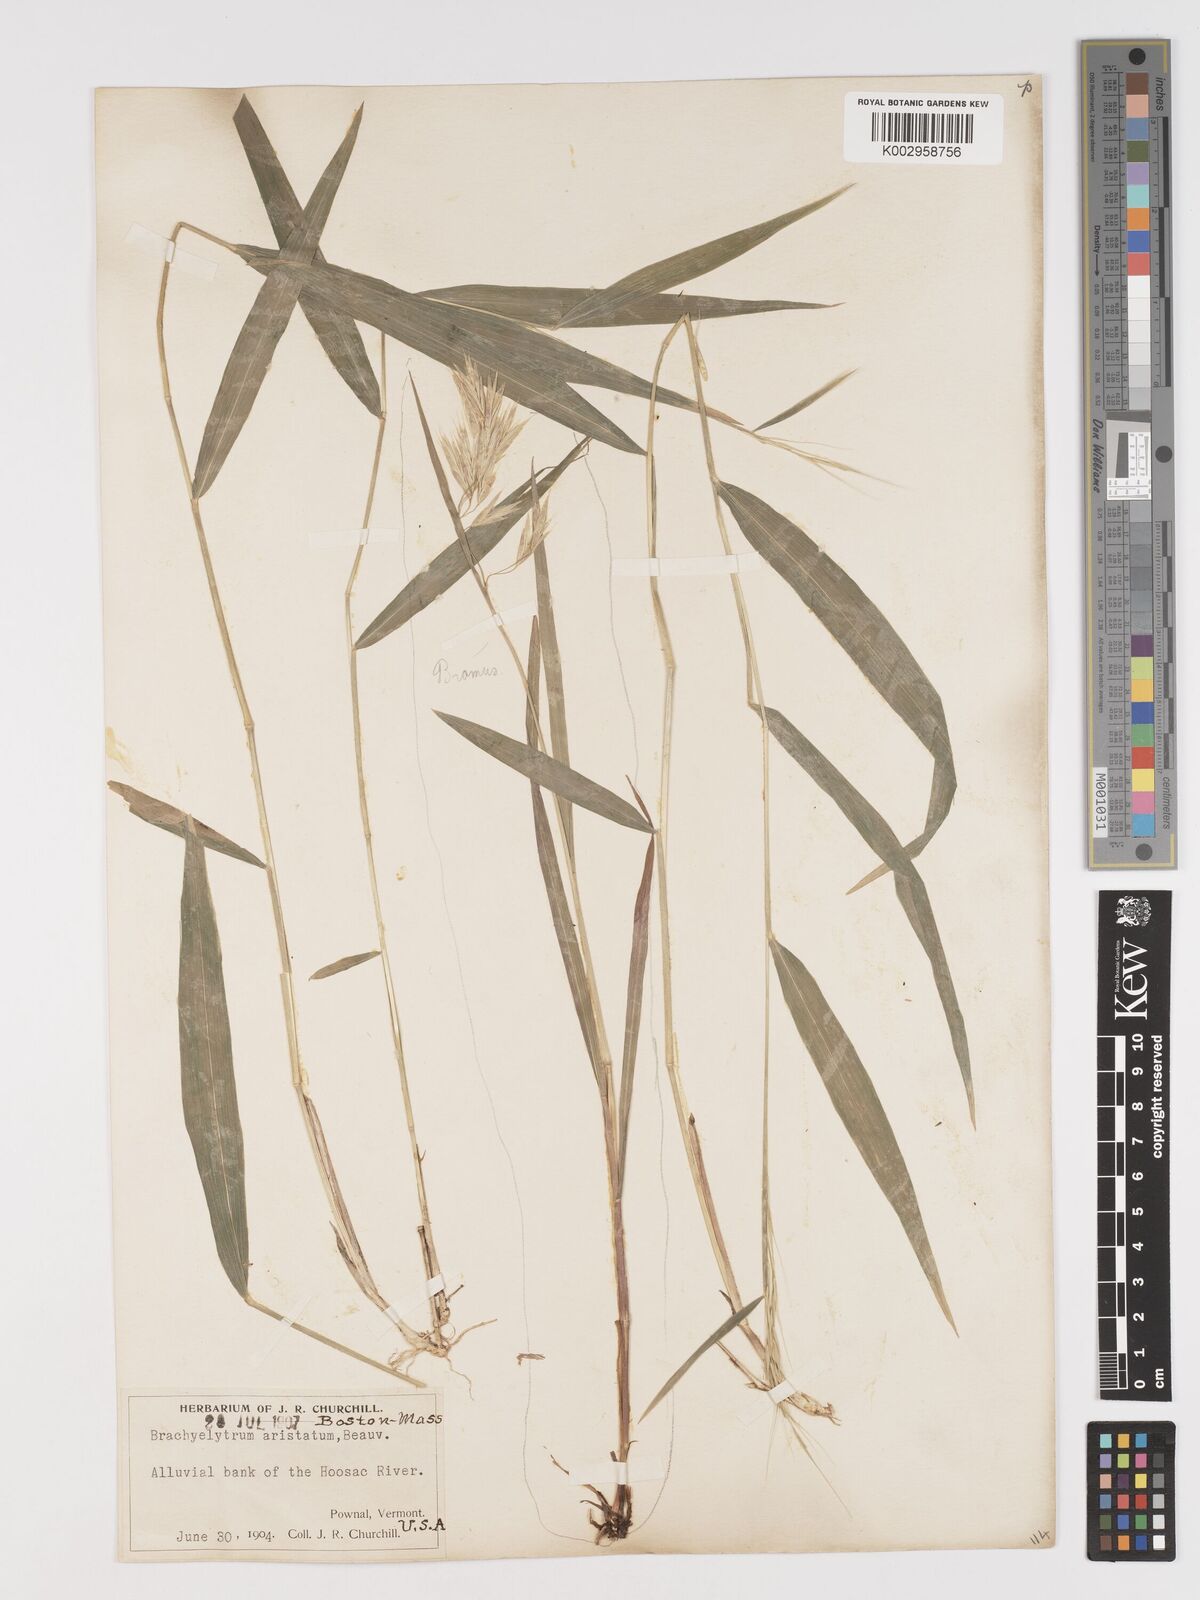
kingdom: Plantae
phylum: Tracheophyta
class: Liliopsida
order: Poales
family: Poaceae
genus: Brachyelytrum
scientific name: Brachyelytrum erectum
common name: Bearded shorthusk
